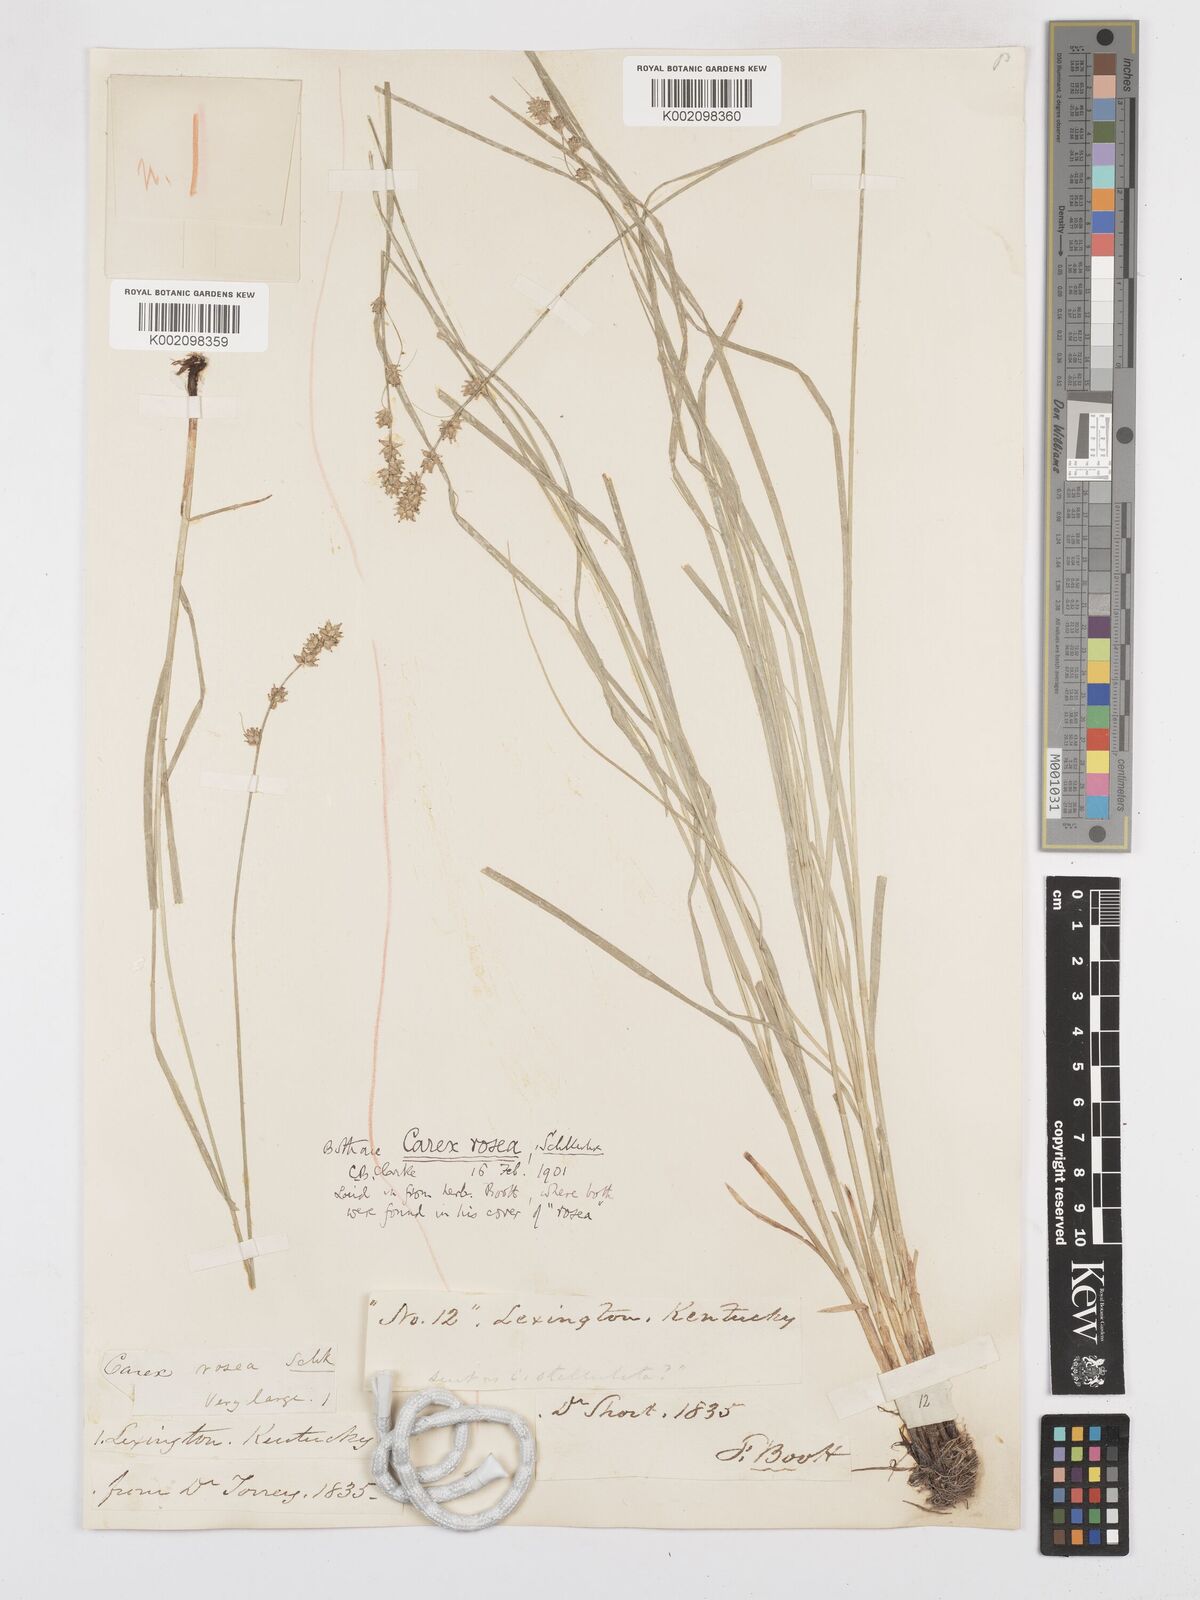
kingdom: Plantae
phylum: Tracheophyta
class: Liliopsida
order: Poales
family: Cyperaceae
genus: Carex
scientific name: Carex rosea
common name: Curly-styled wood sedge
